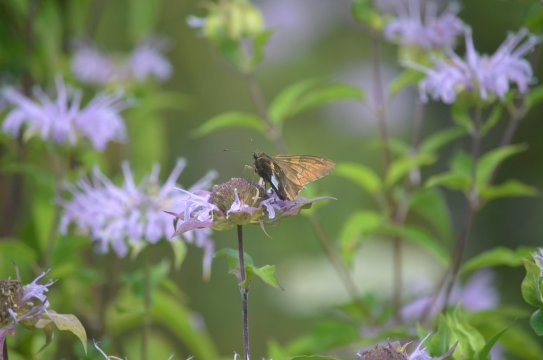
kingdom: Animalia
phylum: Arthropoda
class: Insecta
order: Lepidoptera
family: Hesperiidae
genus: Epargyreus
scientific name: Epargyreus clarus
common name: Silver-spotted Skipper
